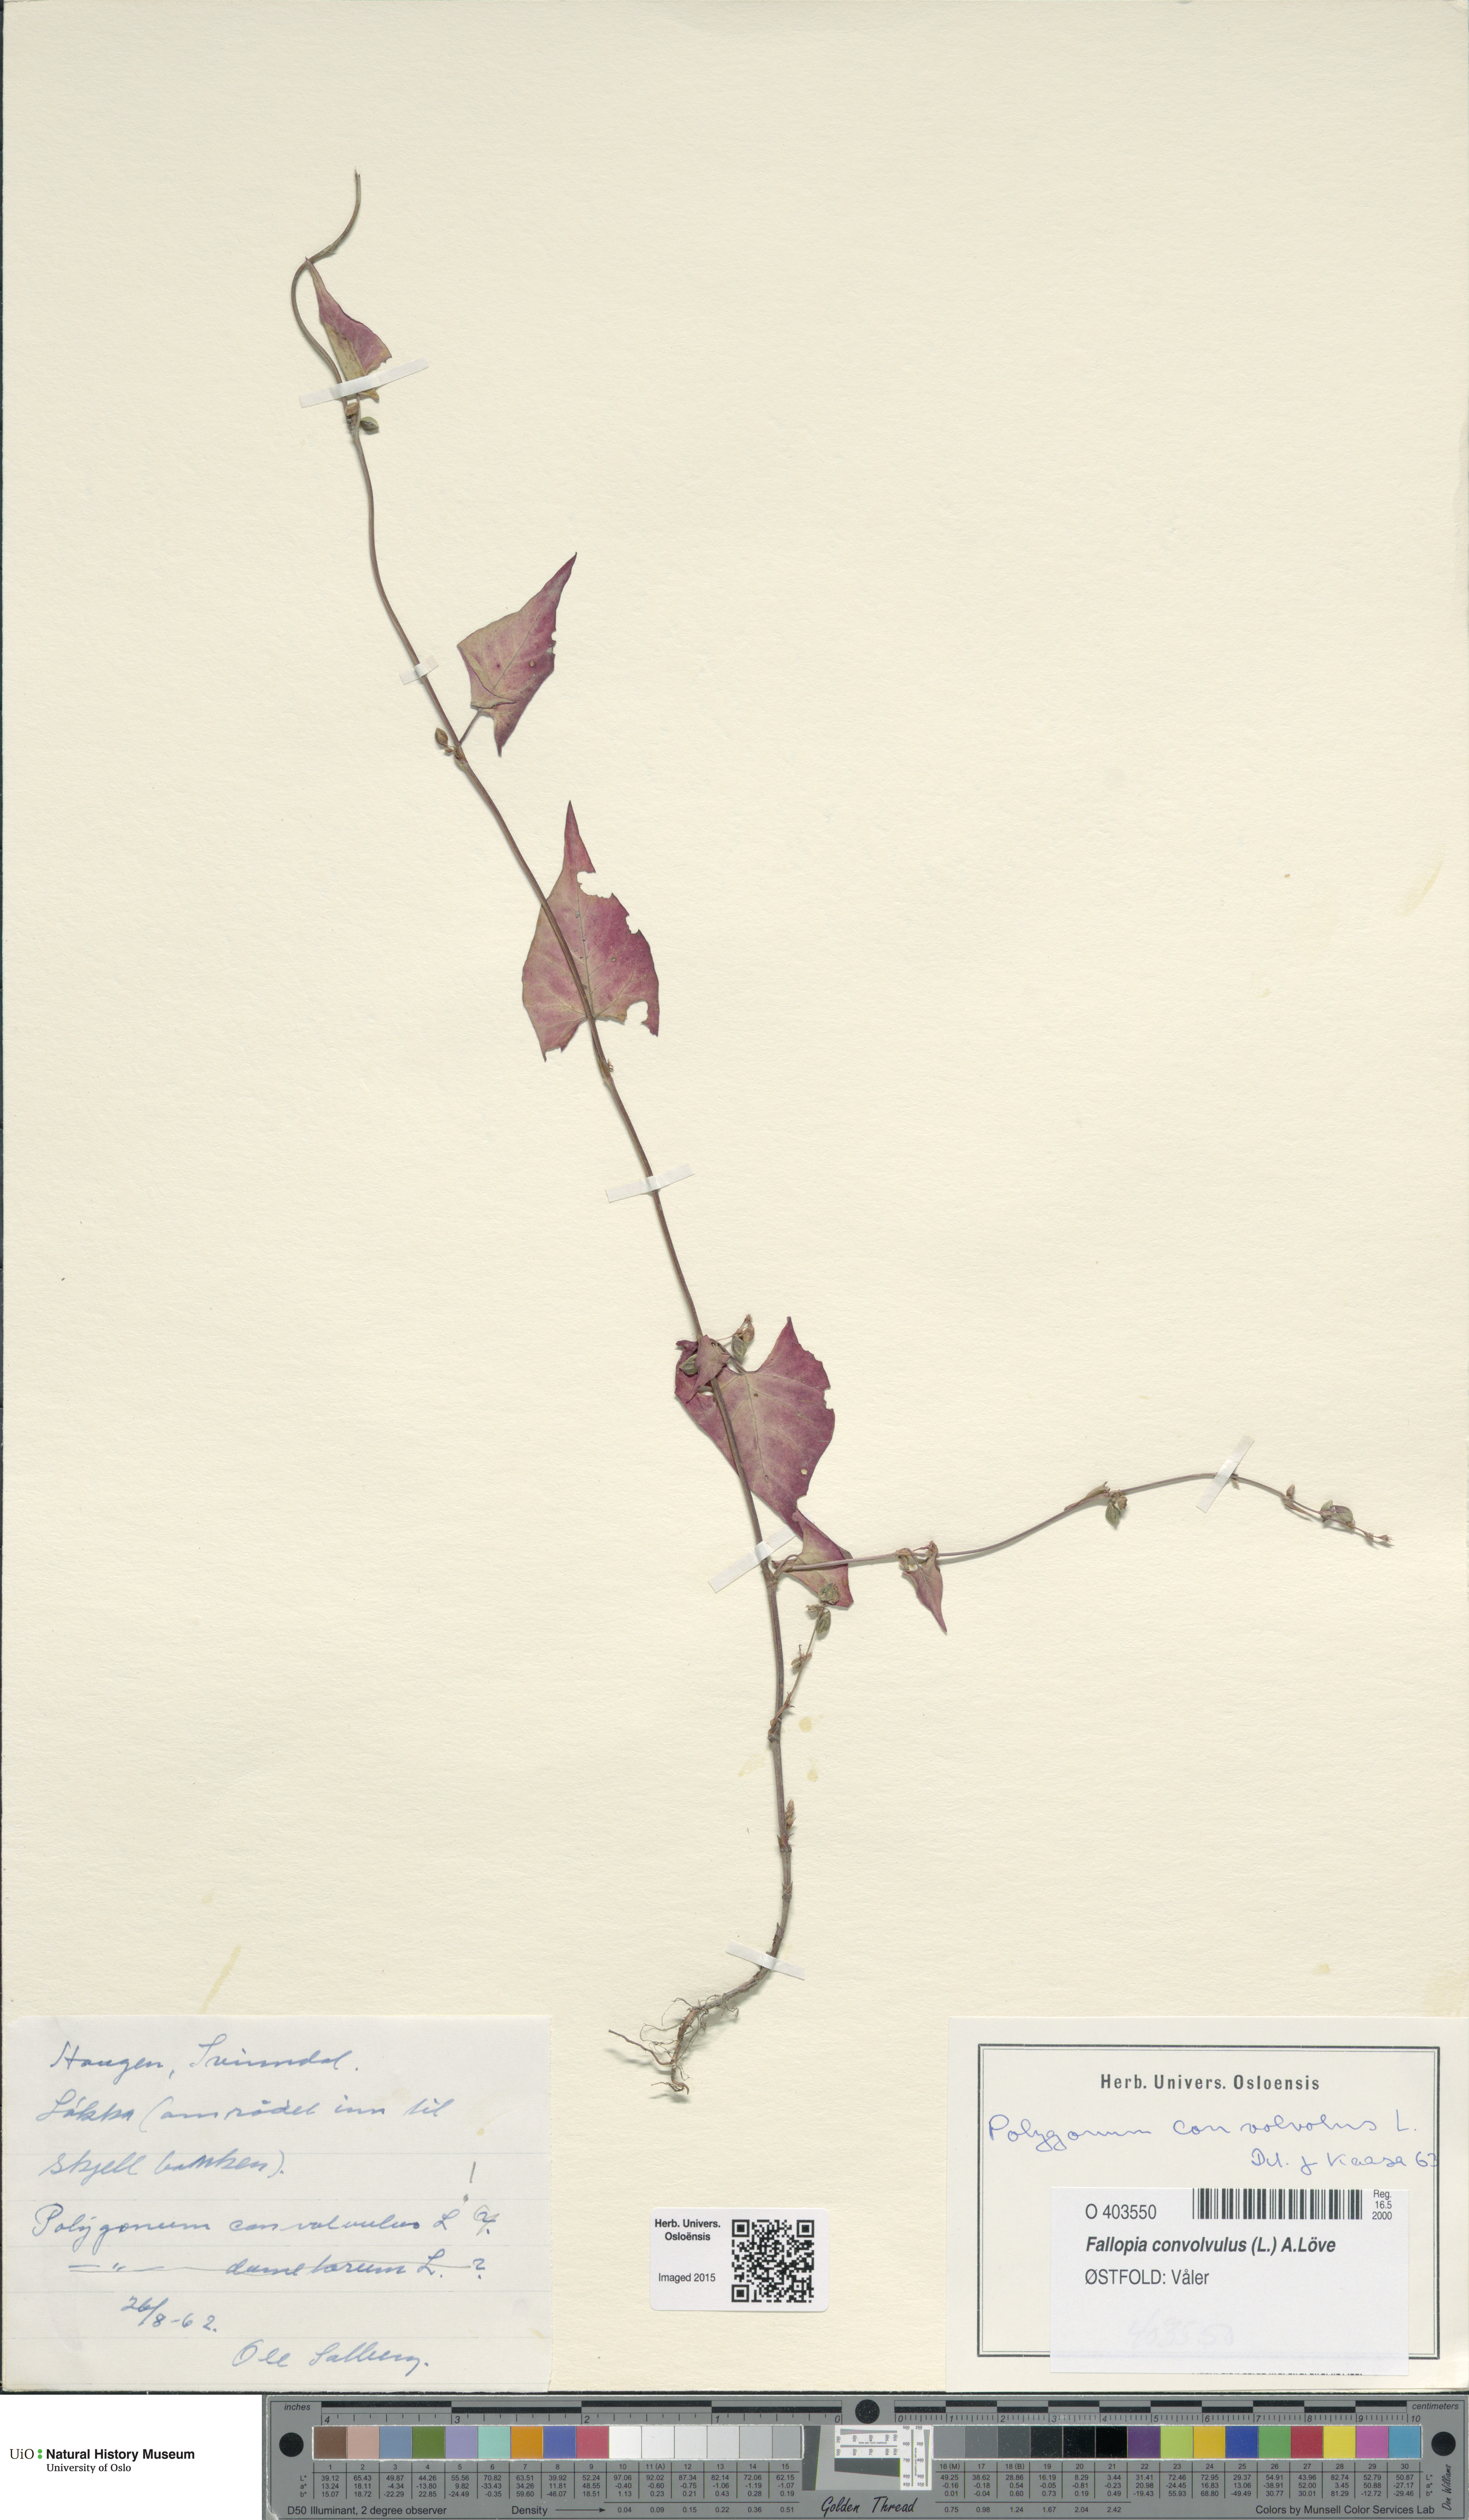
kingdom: Plantae
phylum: Tracheophyta
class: Magnoliopsida
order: Caryophyllales
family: Polygonaceae
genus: Fallopia
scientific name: Fallopia convolvulus
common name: Black bindweed
